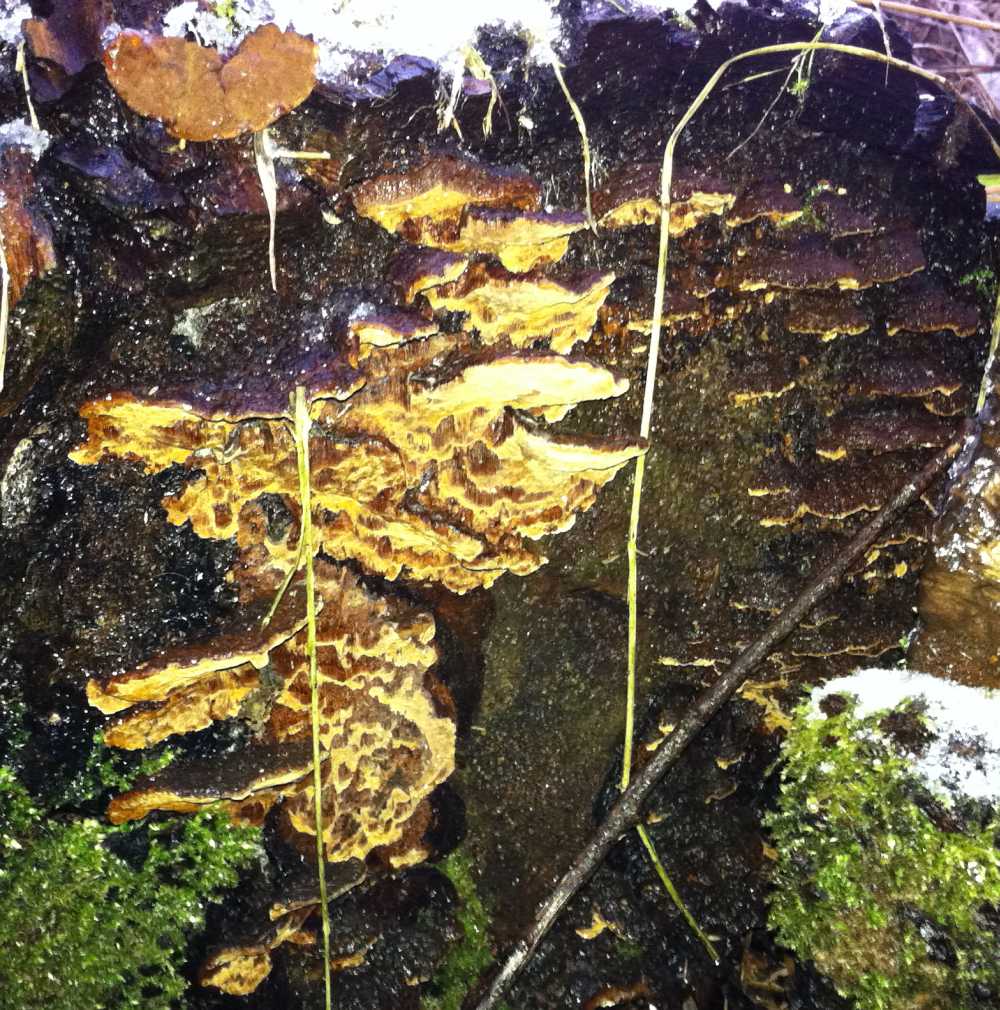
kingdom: Fungi
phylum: Basidiomycota
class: Agaricomycetes
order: Hymenochaetales
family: Hymenochaetaceae
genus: Phellinopsis
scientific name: Phellinopsis conchata
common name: pile-ildporesvamp
